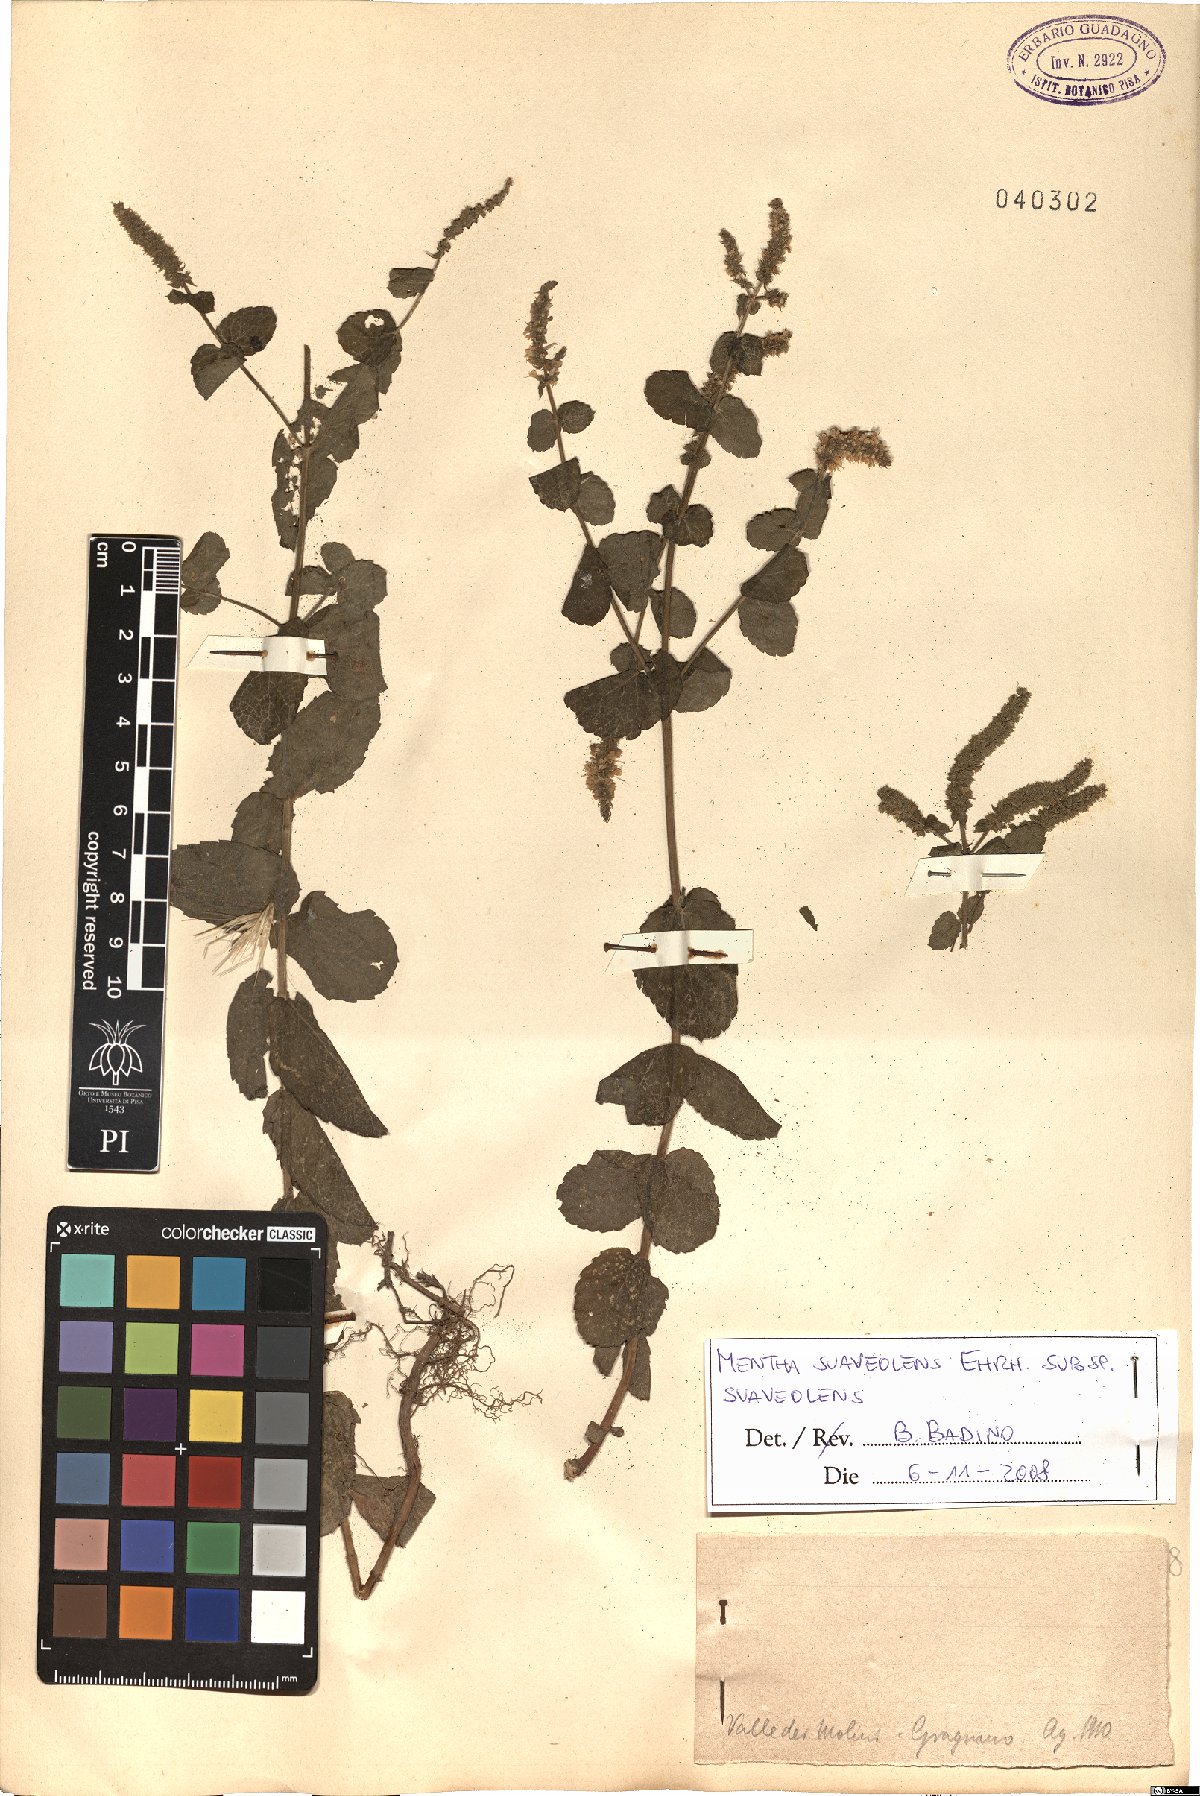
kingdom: Plantae
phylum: Tracheophyta
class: Magnoliopsida
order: Lamiales
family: Lamiaceae
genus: Mentha
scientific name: Mentha suaveolens
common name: Apple mint
